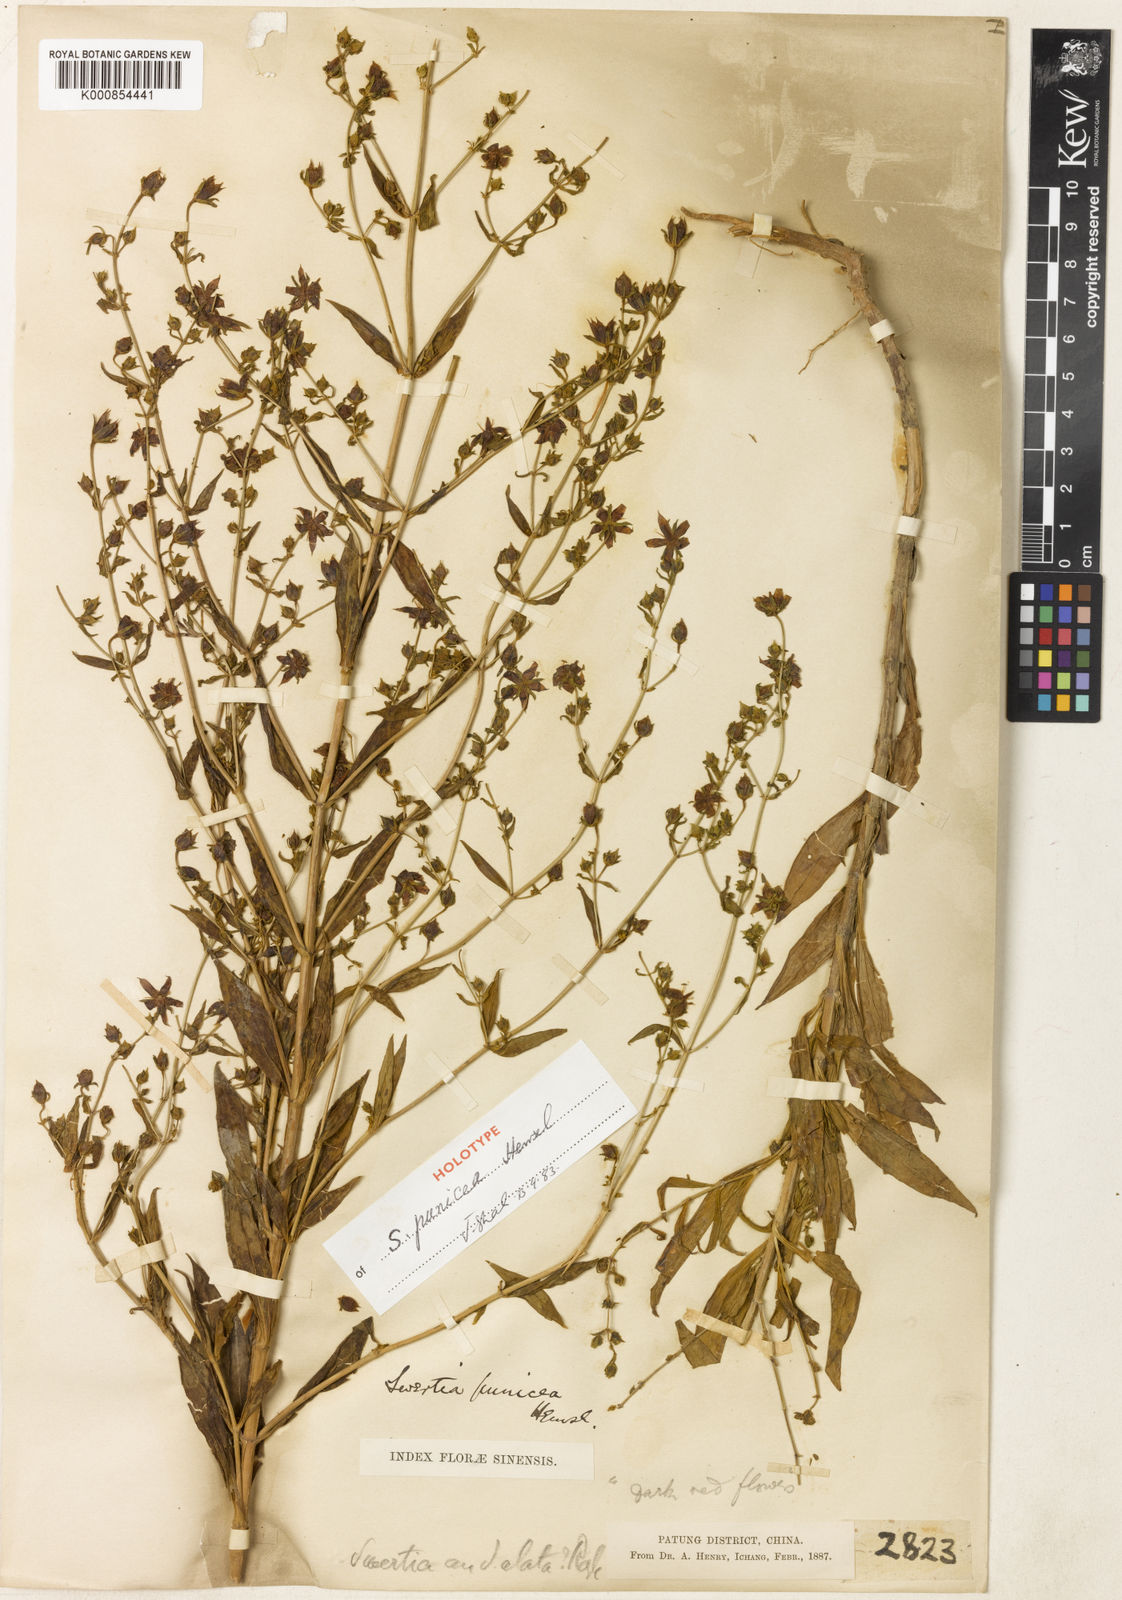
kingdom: Plantae
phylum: Tracheophyta
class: Magnoliopsida
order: Gentianales
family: Gentianaceae
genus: Swertia
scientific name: Swertia punicea
